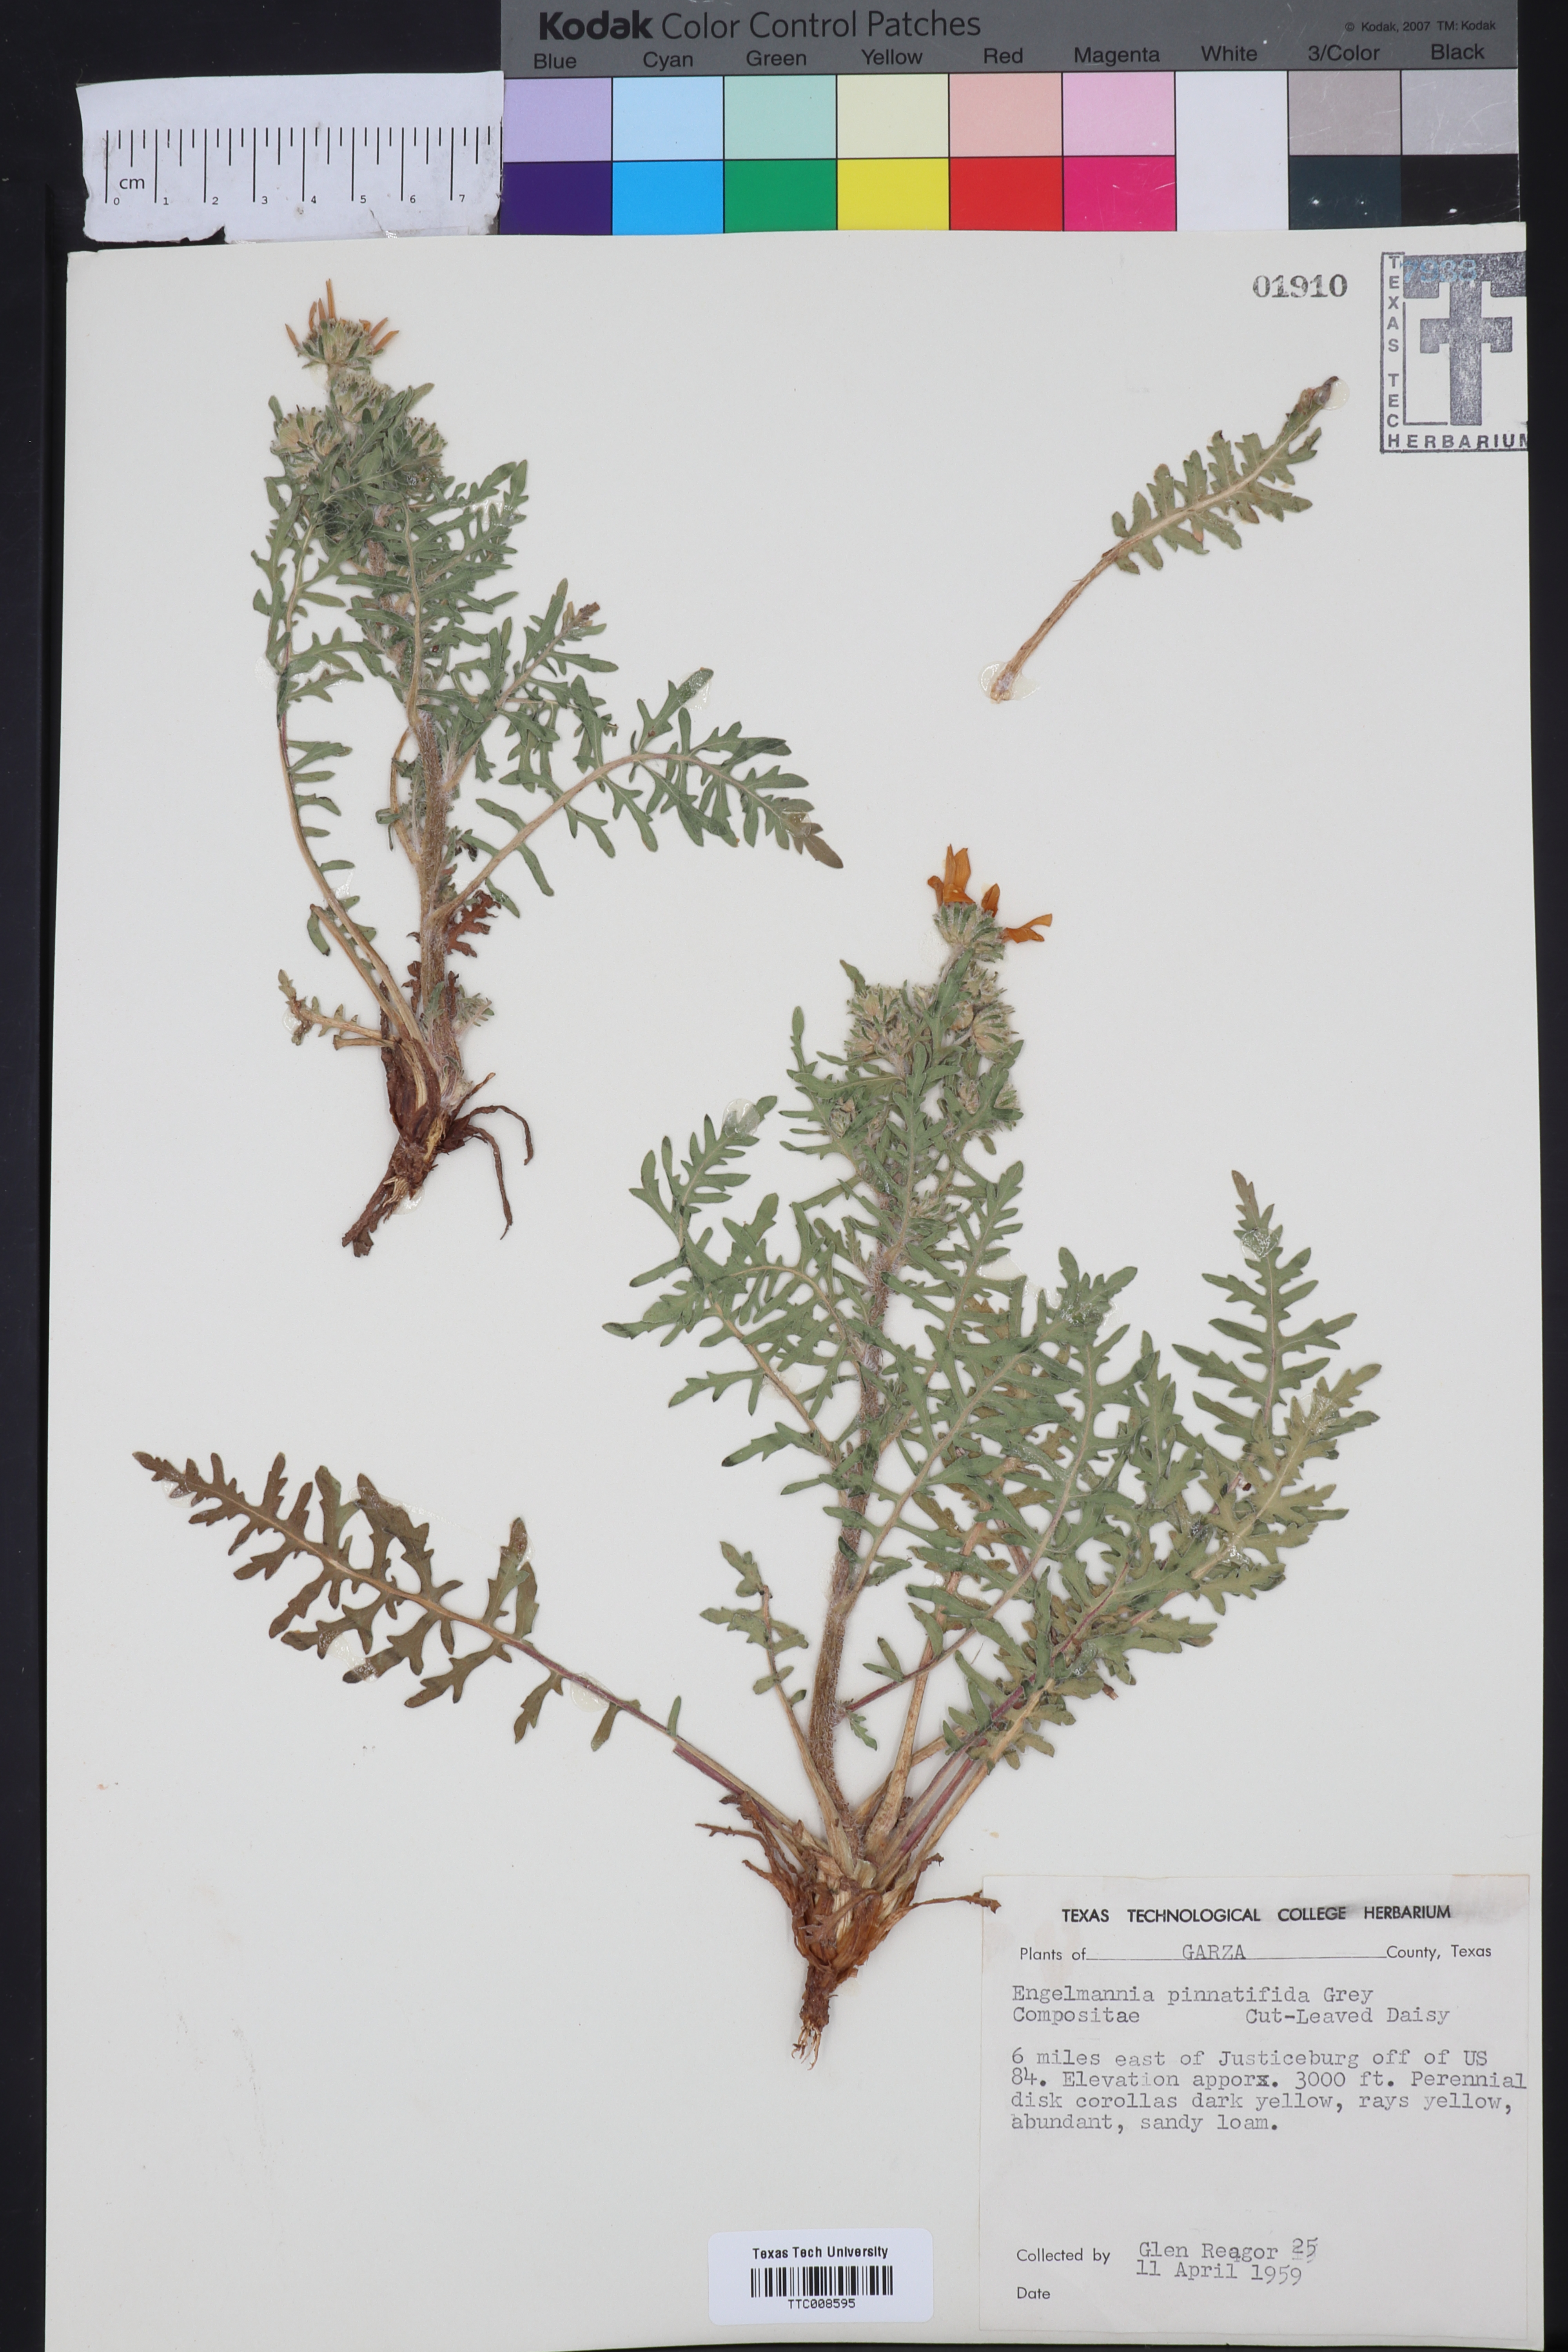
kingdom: Plantae
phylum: Tracheophyta
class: Magnoliopsida
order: Asterales
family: Asteraceae
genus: Engelmannia
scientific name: Engelmannia peristenia
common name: Engelmann's daisy
